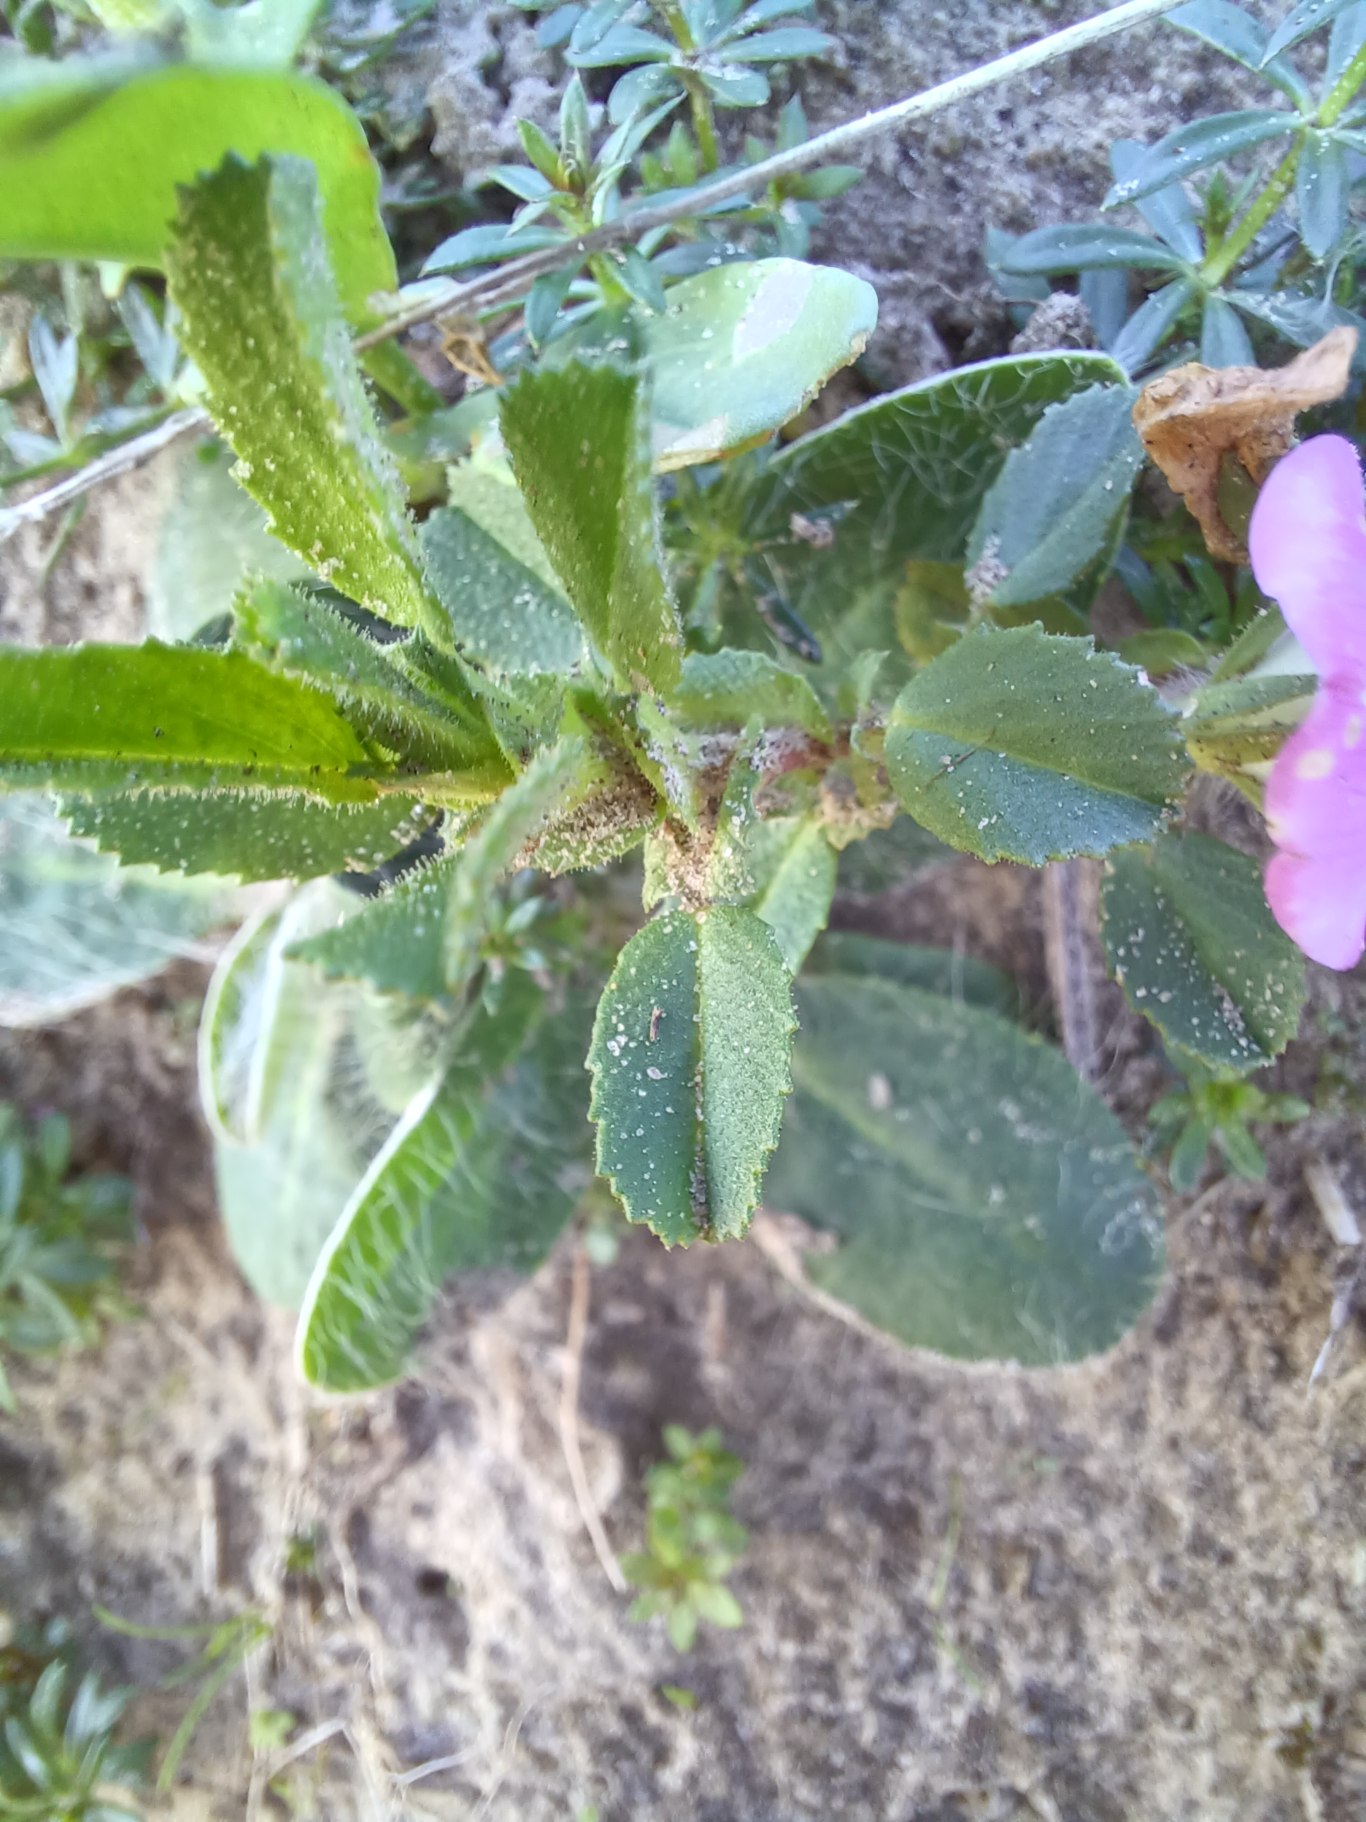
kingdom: Plantae
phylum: Tracheophyta
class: Magnoliopsida
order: Fabales
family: Fabaceae
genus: Ononis
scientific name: Ononis spinosa
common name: Mark-krageklo
